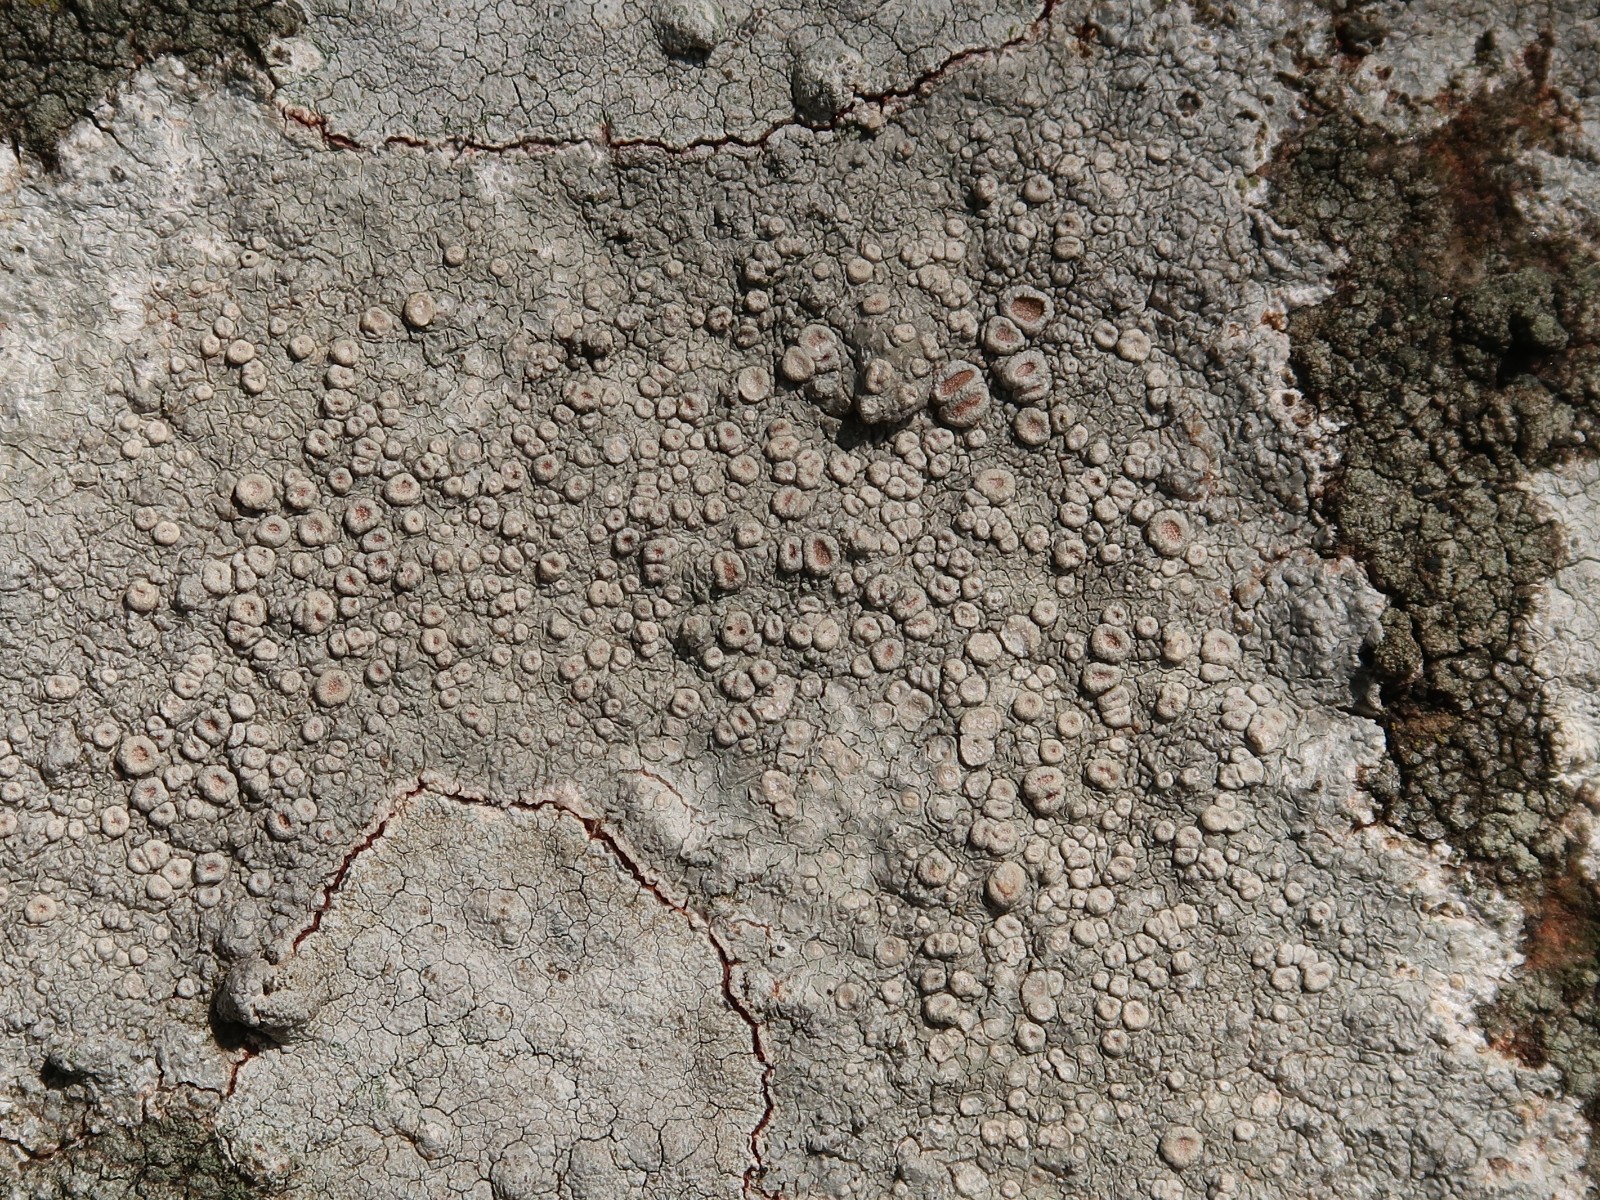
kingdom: Fungi
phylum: Ascomycota
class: Lecanoromycetes
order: Pertusariales
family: Ochrolechiaceae
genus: Ochrolechia
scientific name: Ochrolechia parella
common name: almindelig blegskivelav
